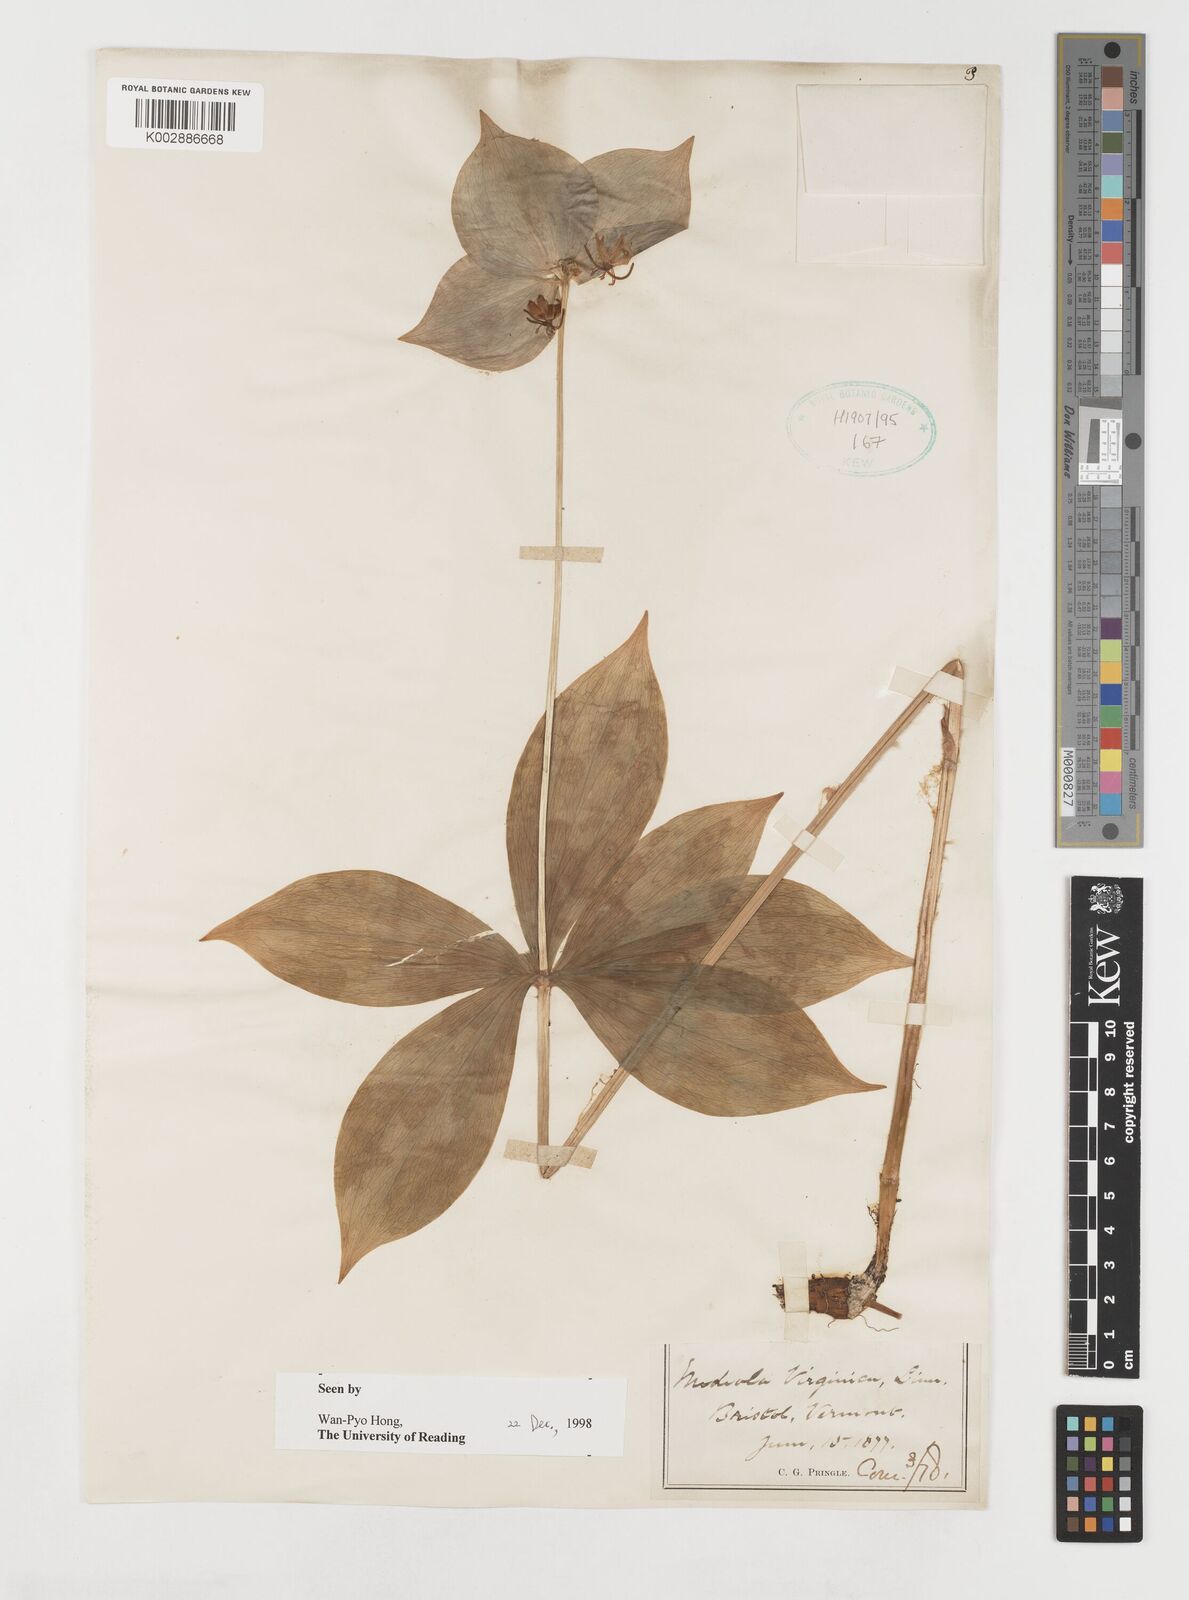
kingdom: Plantae
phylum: Tracheophyta
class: Liliopsida
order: Liliales
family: Liliaceae
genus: Medeola
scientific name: Medeola virginiana
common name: Indian cucumber-root
